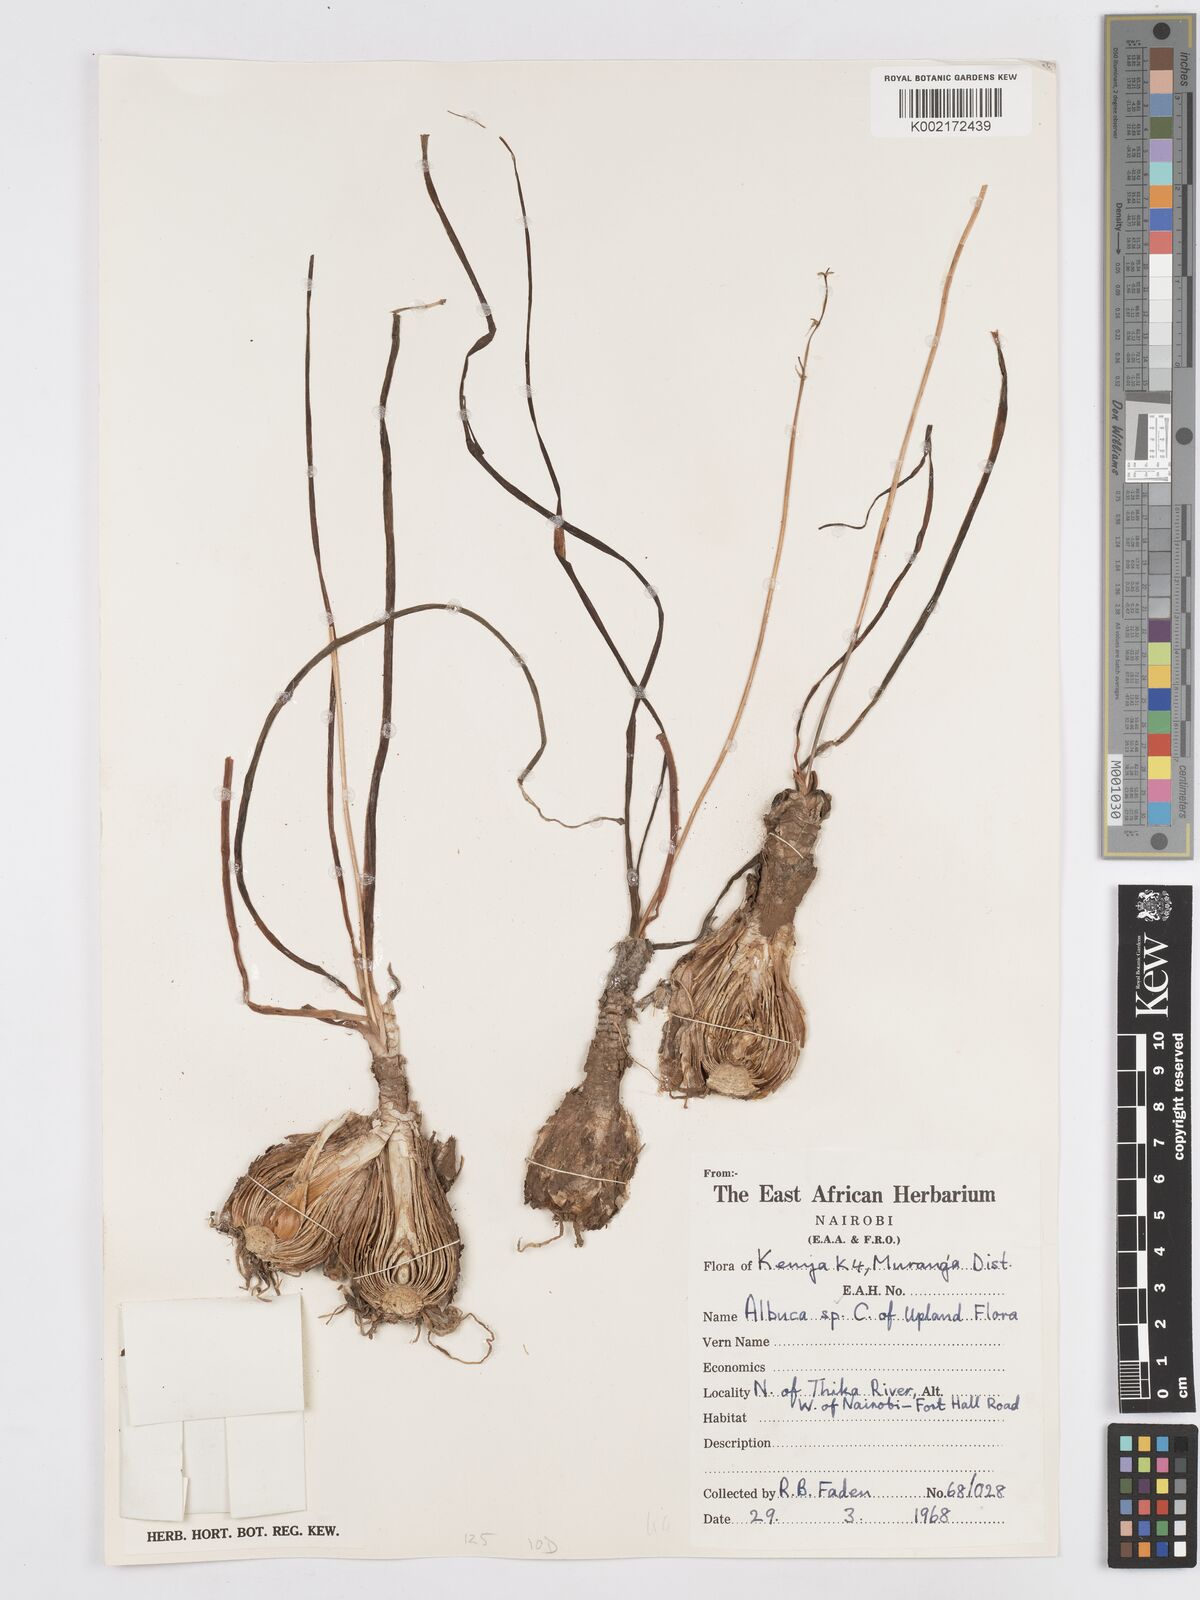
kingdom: Plantae
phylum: Tracheophyta
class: Liliopsida
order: Asparagales
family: Asparagaceae
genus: Albuca
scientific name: Albuca abyssinica
